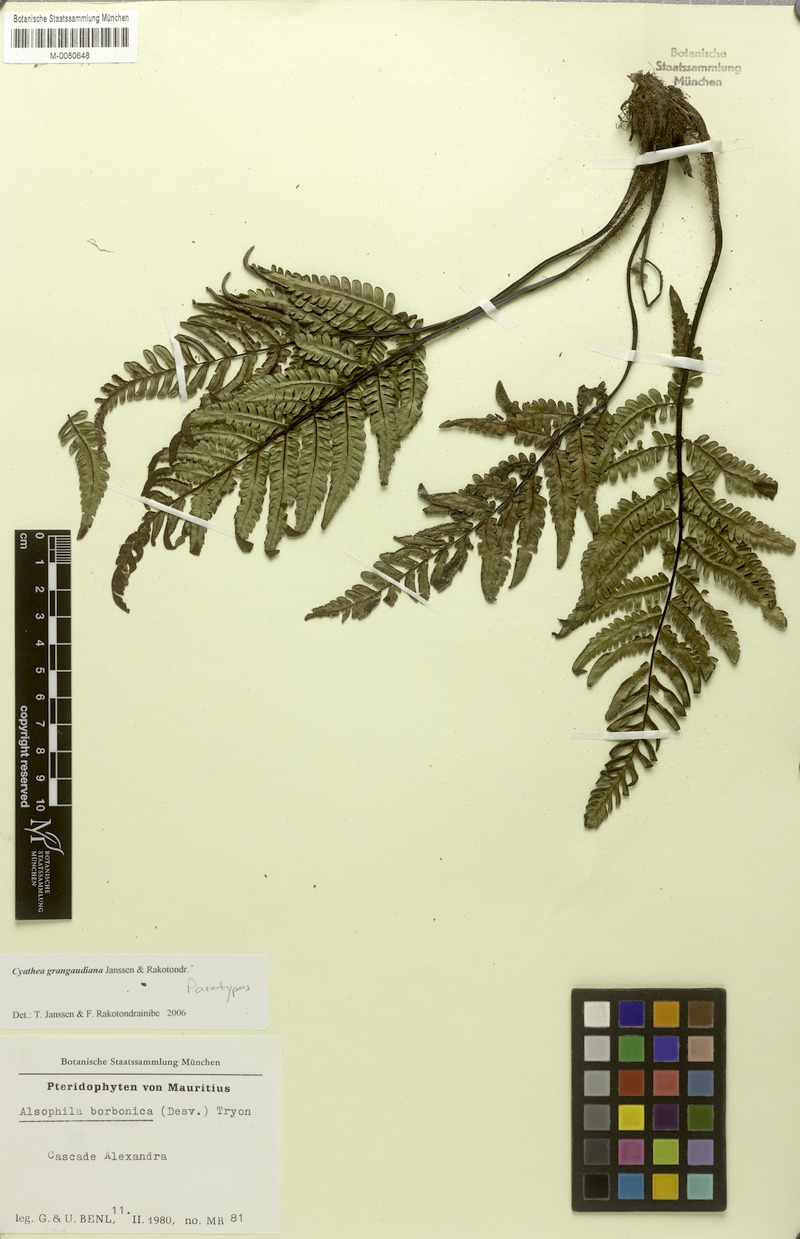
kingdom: Plantae
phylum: Tracheophyta
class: Polypodiopsida
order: Cyatheales
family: Cyatheaceae
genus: Alsophila
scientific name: Alsophila grangaudiana
